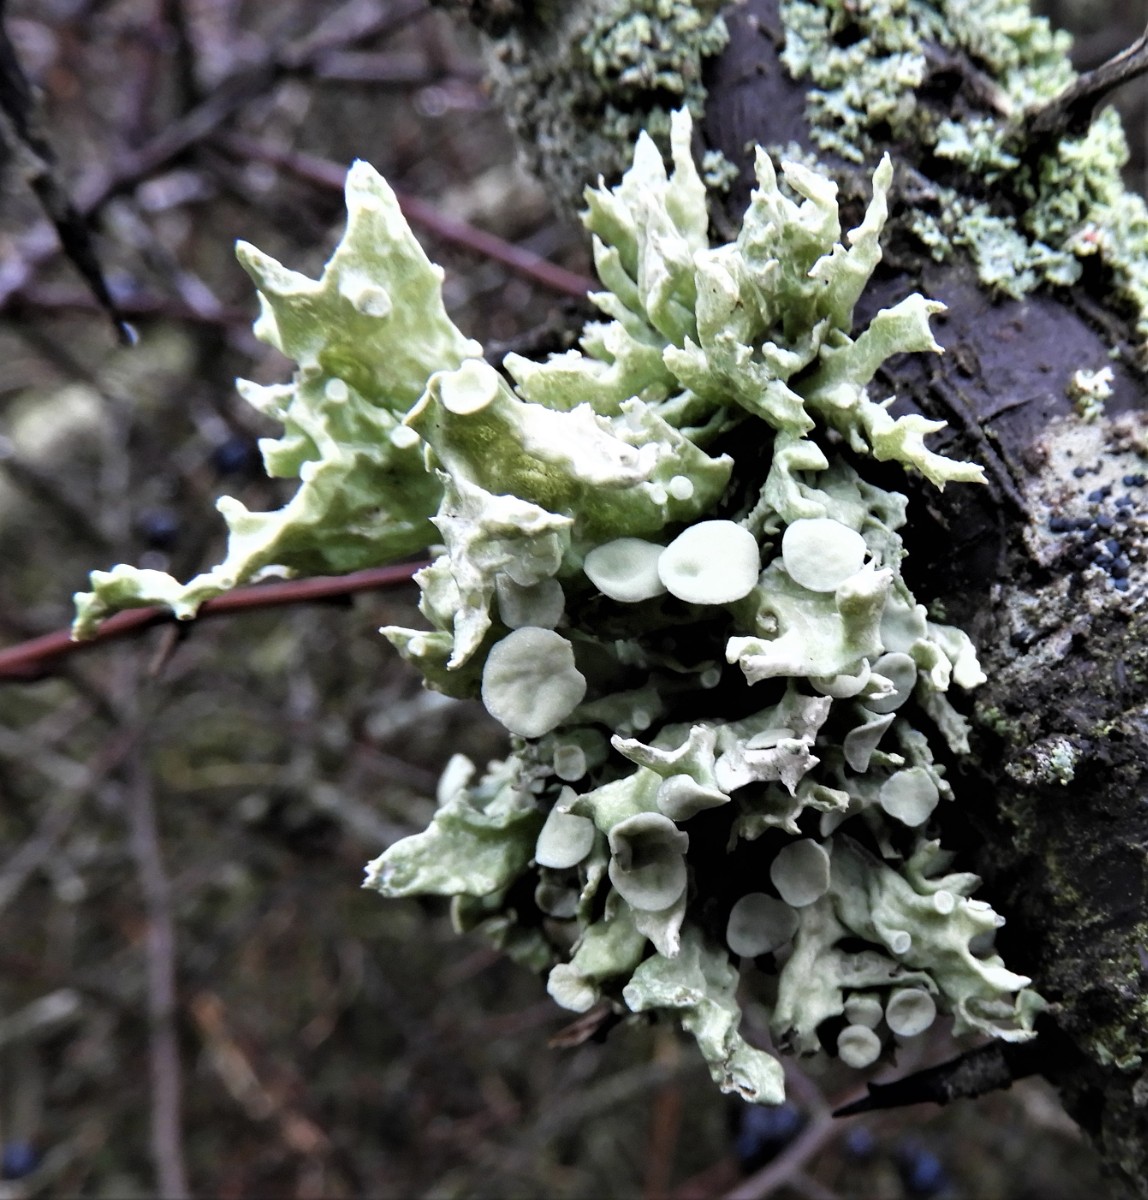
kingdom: Fungi
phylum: Ascomycota
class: Lecanoromycetes
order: Lecanorales
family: Ramalinaceae
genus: Ramalina
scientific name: Ramalina fastigiata
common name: tue-grenlav
